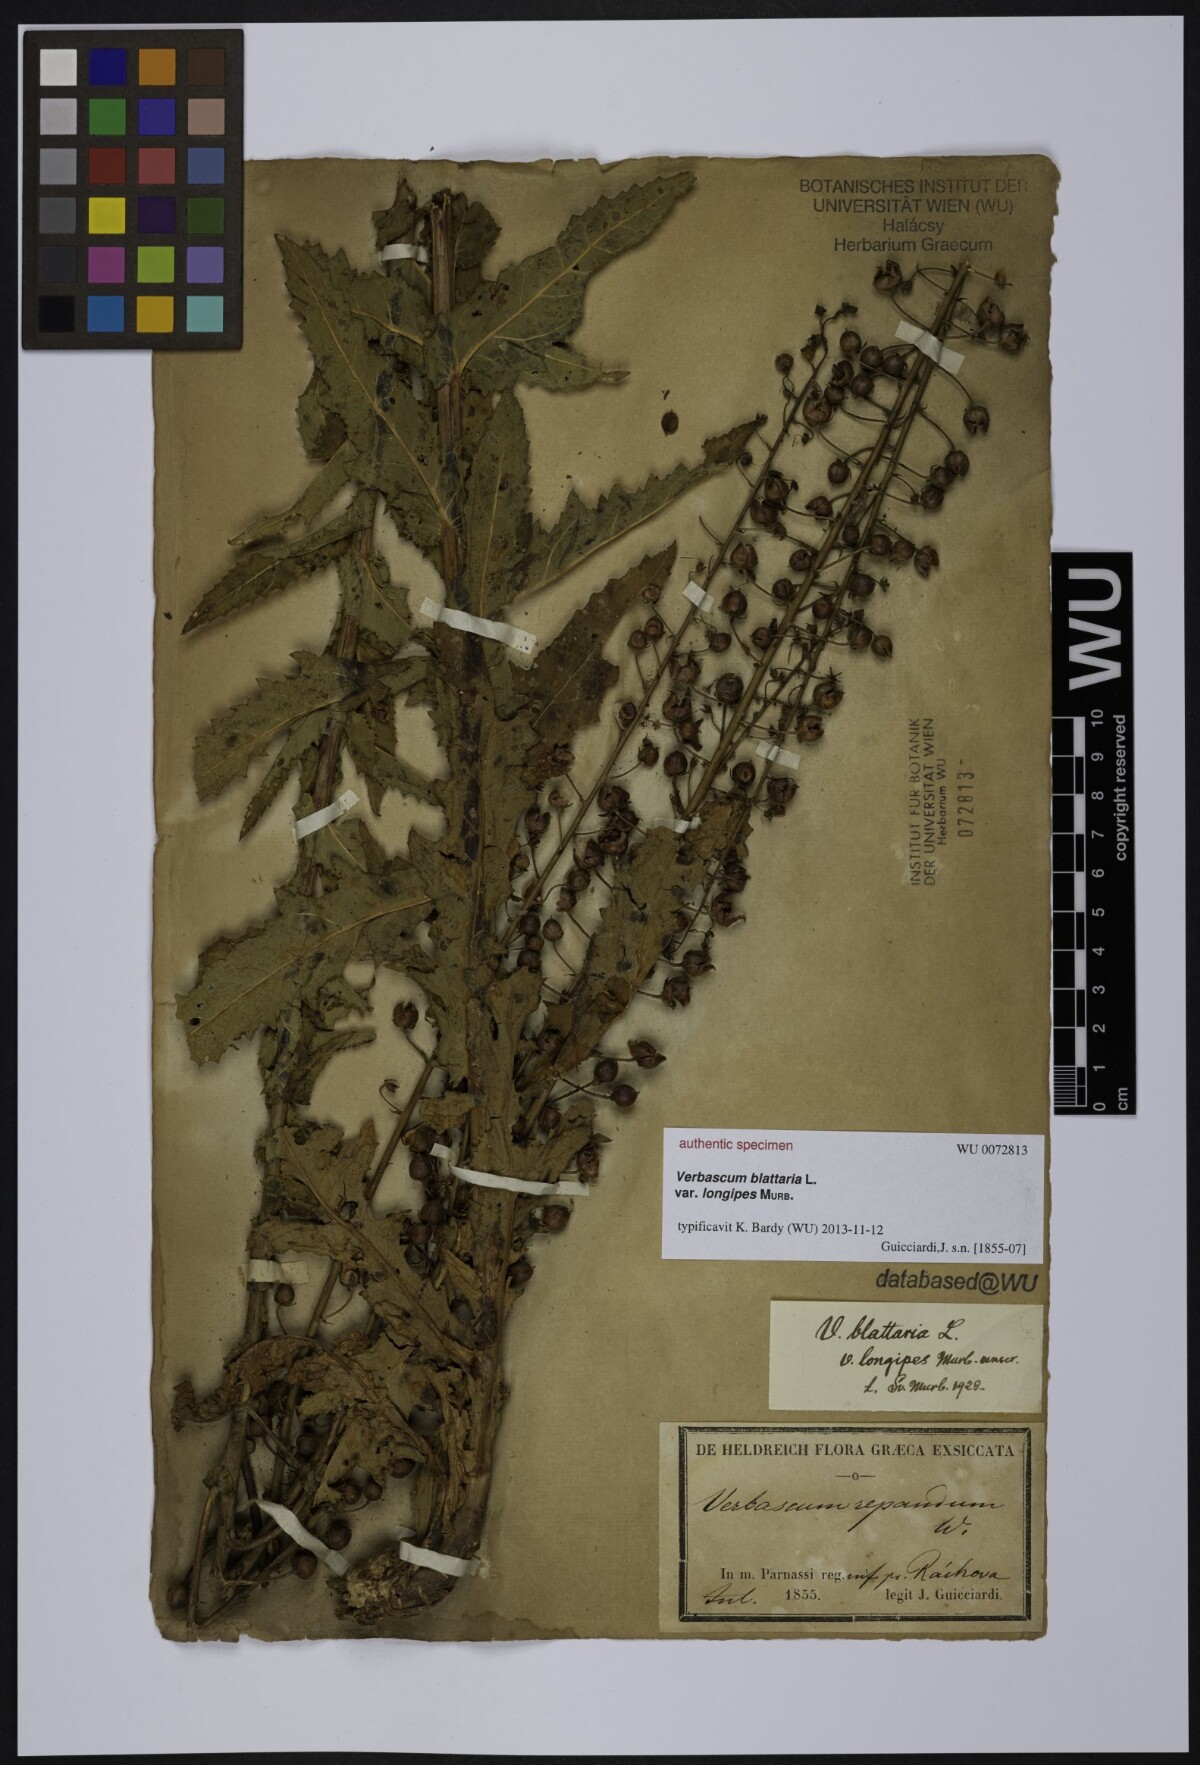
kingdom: Plantae
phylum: Tracheophyta
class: Magnoliopsida
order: Lamiales
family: Scrophulariaceae
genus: Verbascum
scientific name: Verbascum blattaria
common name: Moth mullein
